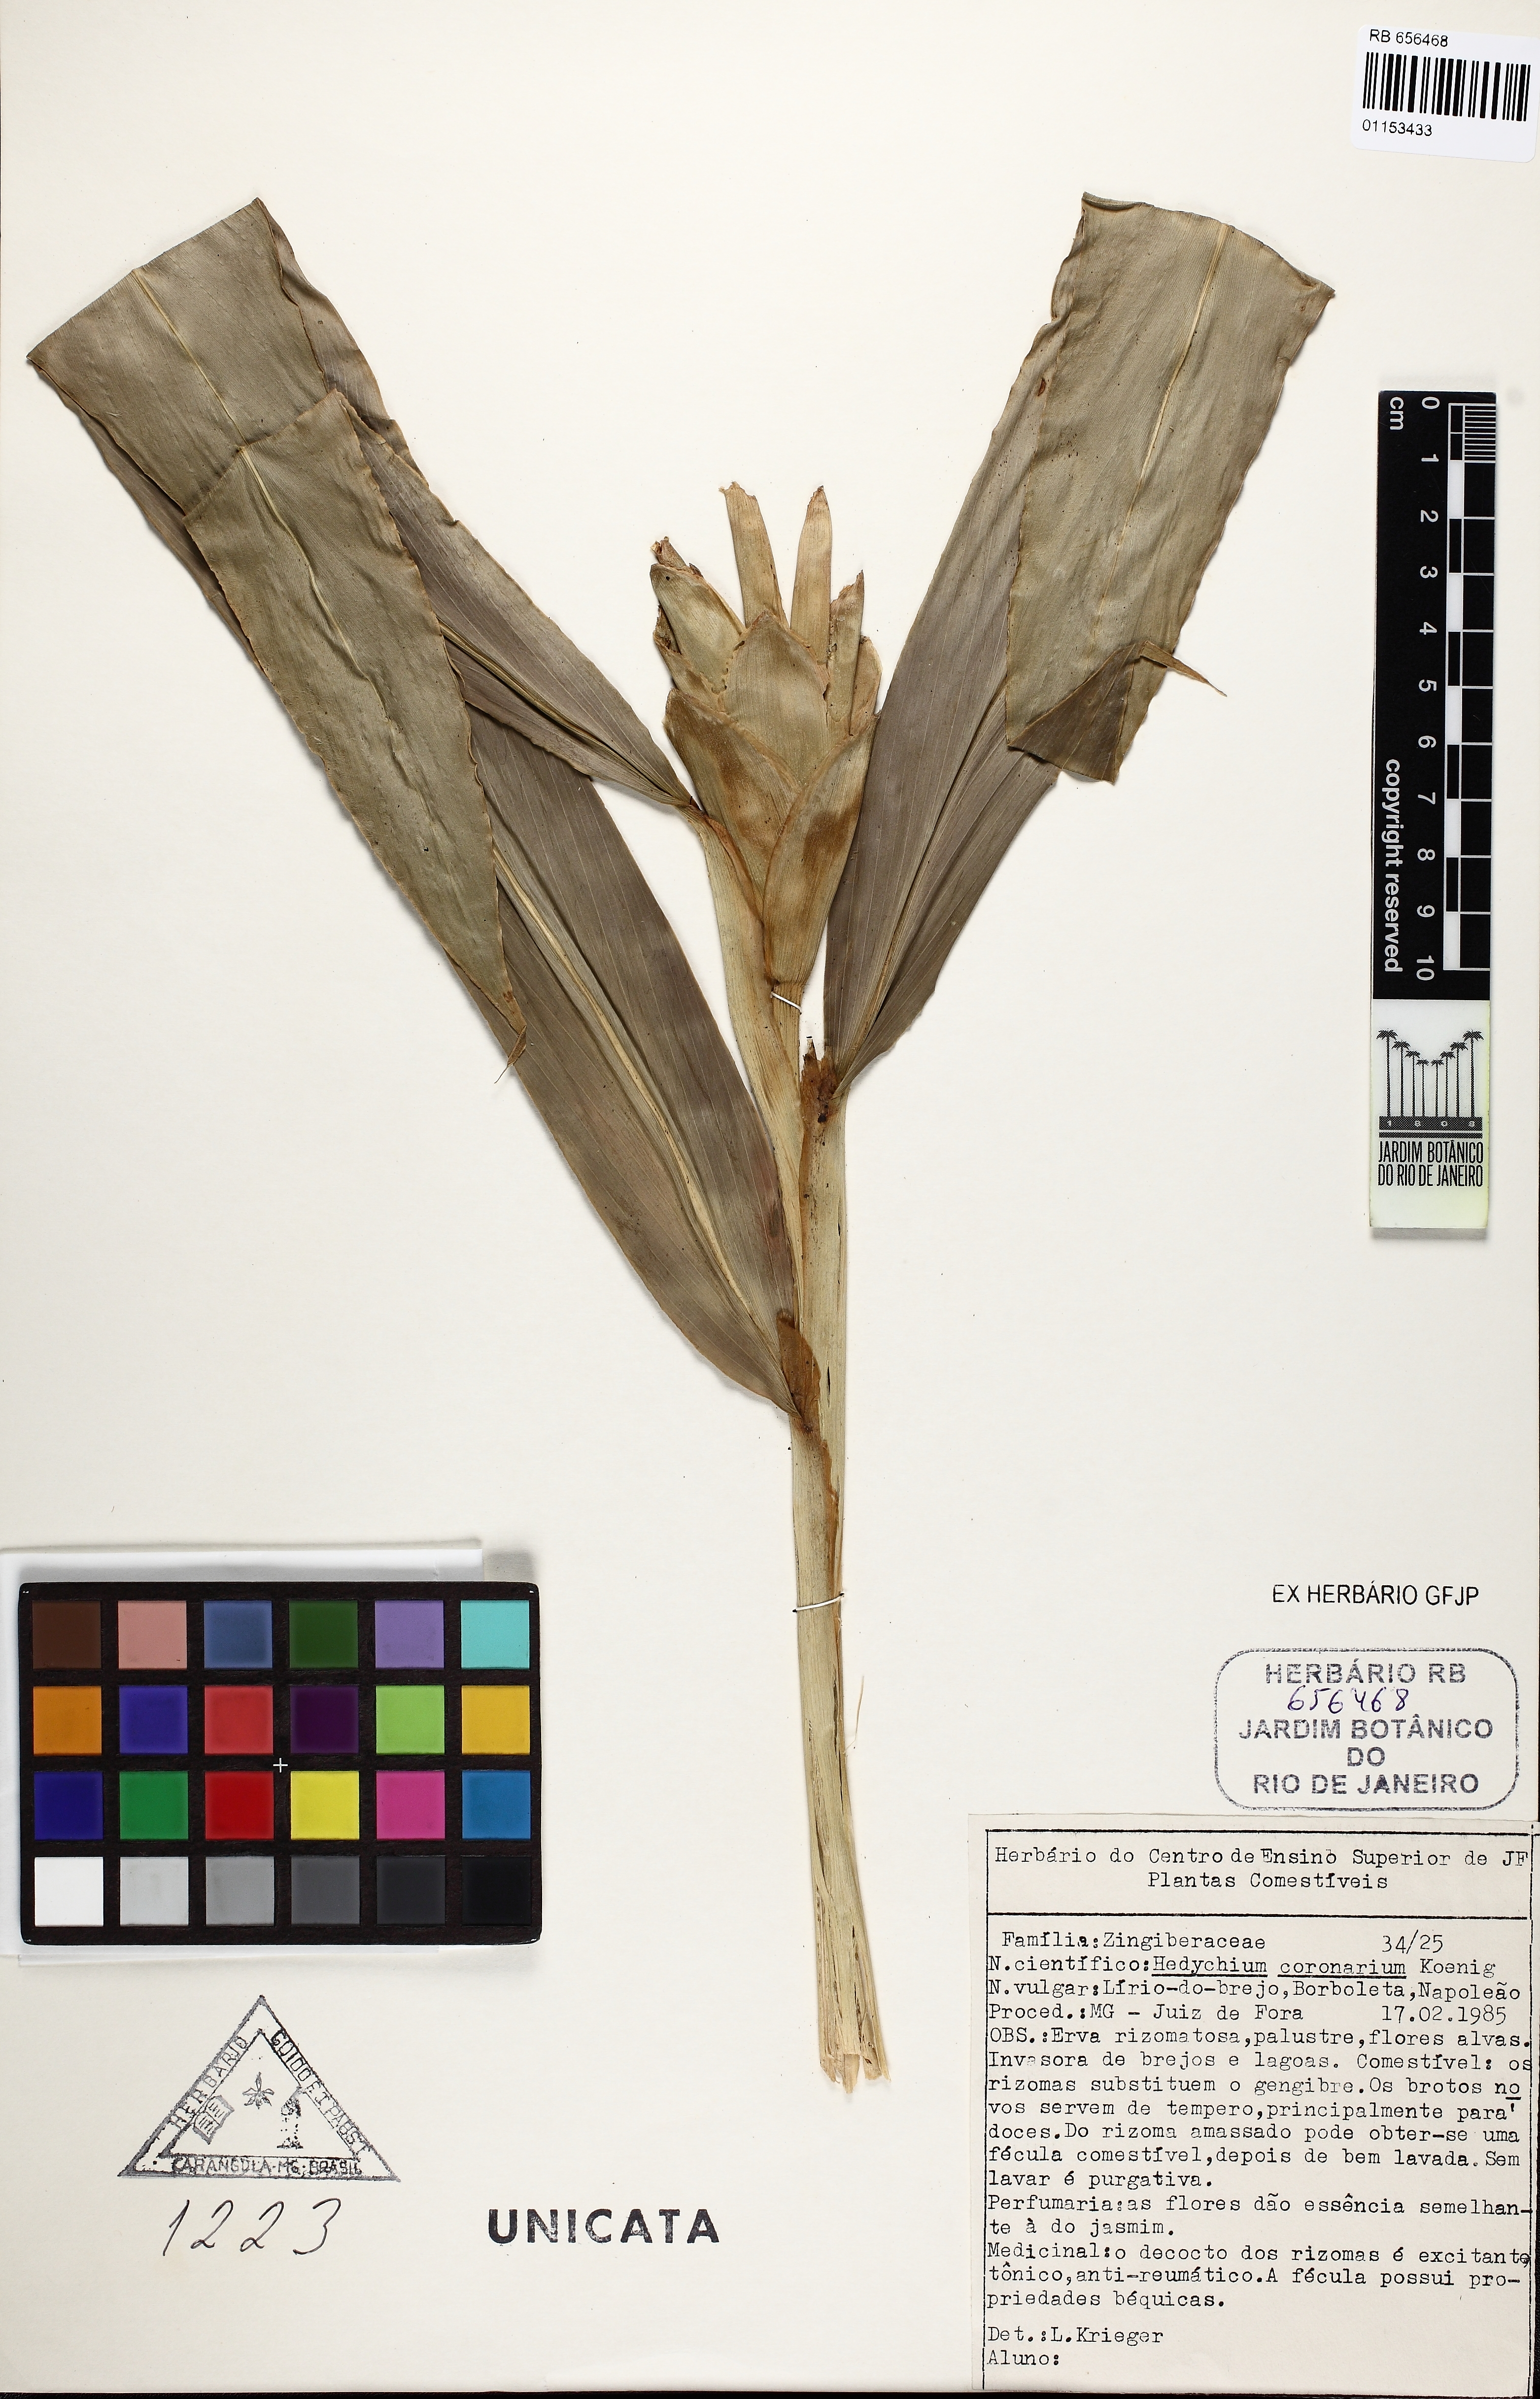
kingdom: Plantae
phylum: Tracheophyta
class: Liliopsida
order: Zingiberales
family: Zingiberaceae
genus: Hedychium
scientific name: Hedychium coronarium
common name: White garland-lily
